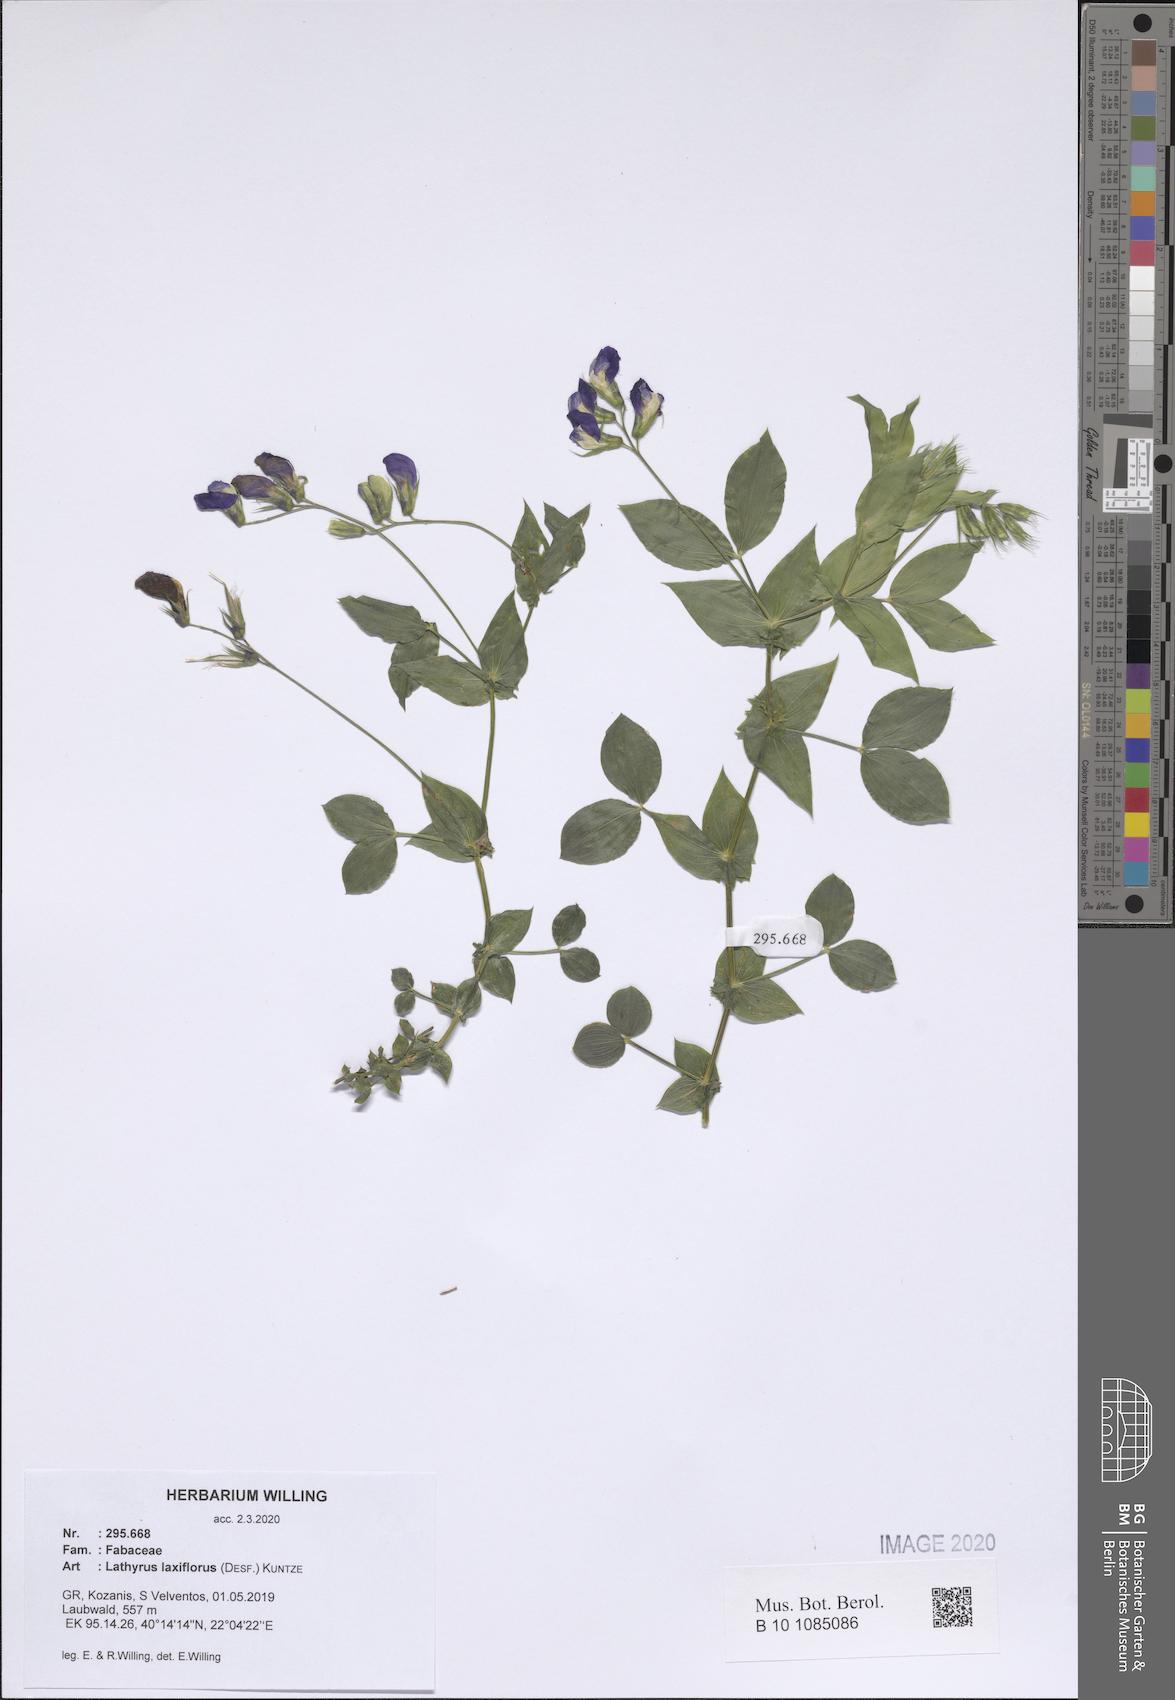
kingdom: Plantae
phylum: Tracheophyta
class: Magnoliopsida
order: Fabales
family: Fabaceae
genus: Lathyrus
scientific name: Lathyrus laxiflorus
